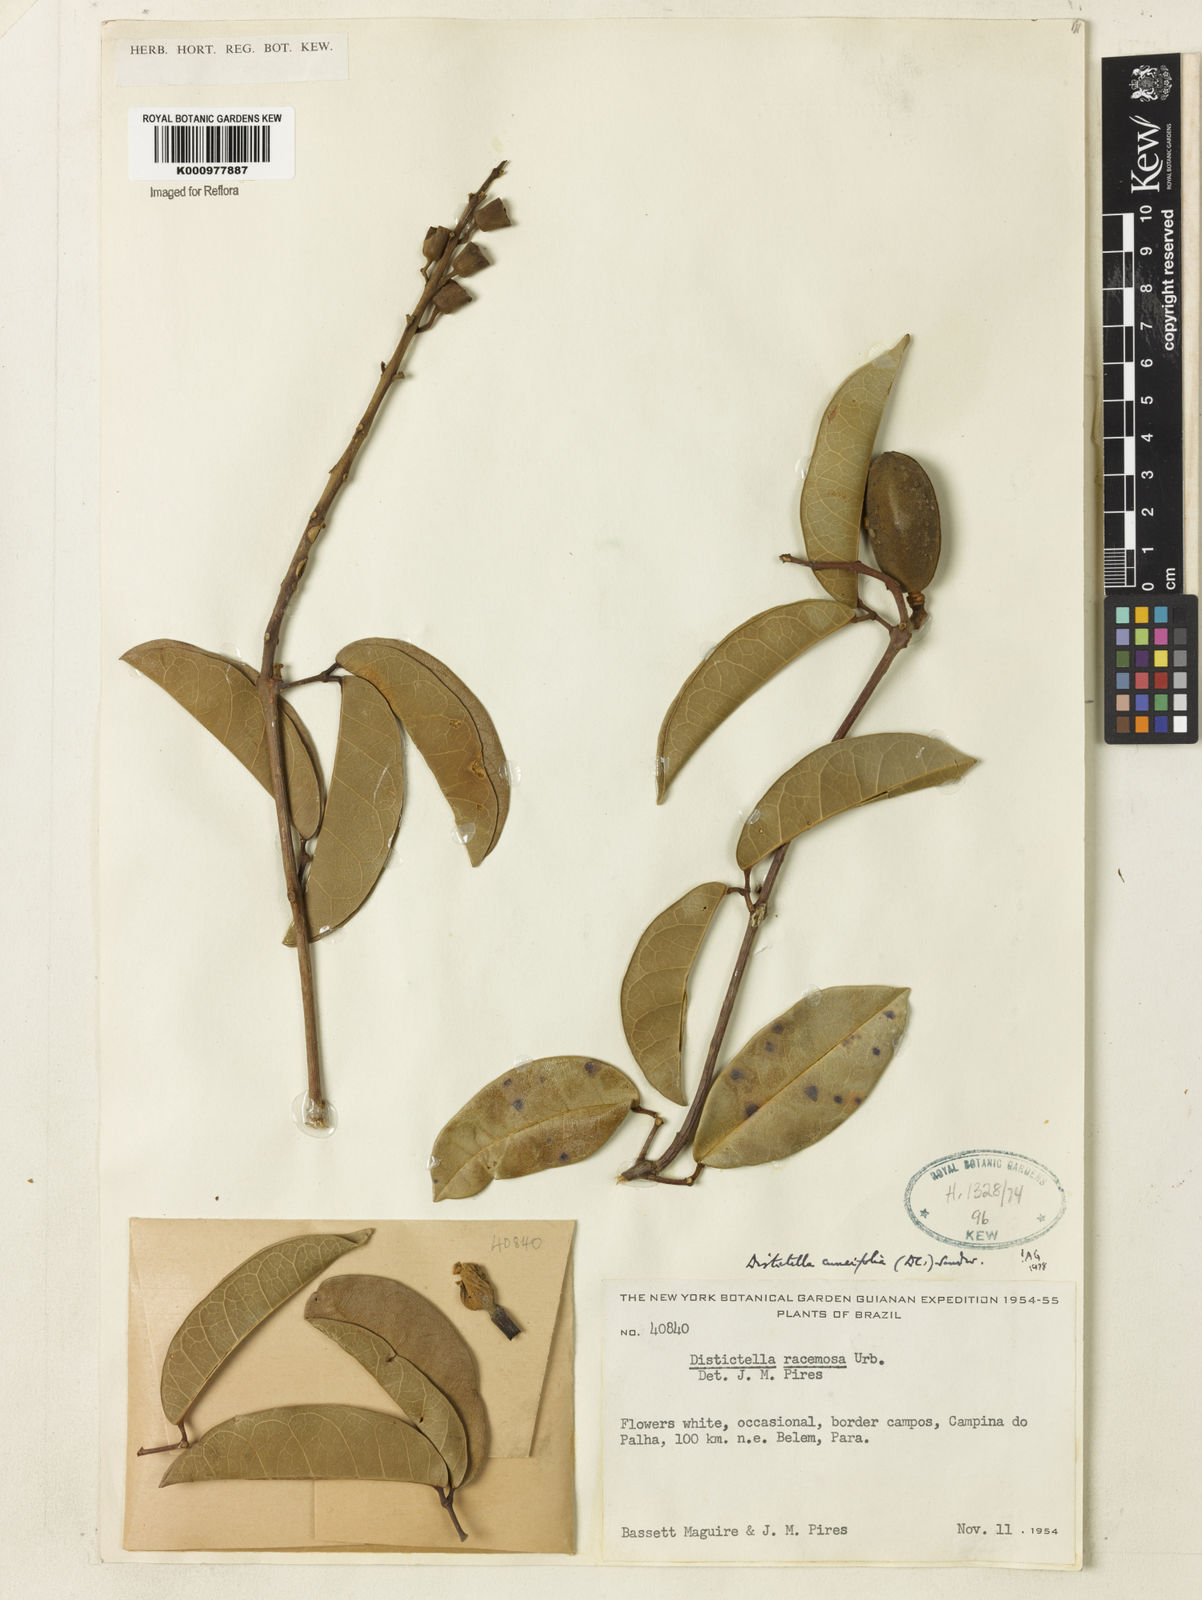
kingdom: Plantae
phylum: Tracheophyta
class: Magnoliopsida
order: Lamiales
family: Bignoniaceae
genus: Amphilophium
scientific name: Amphilophium cuneifolium
